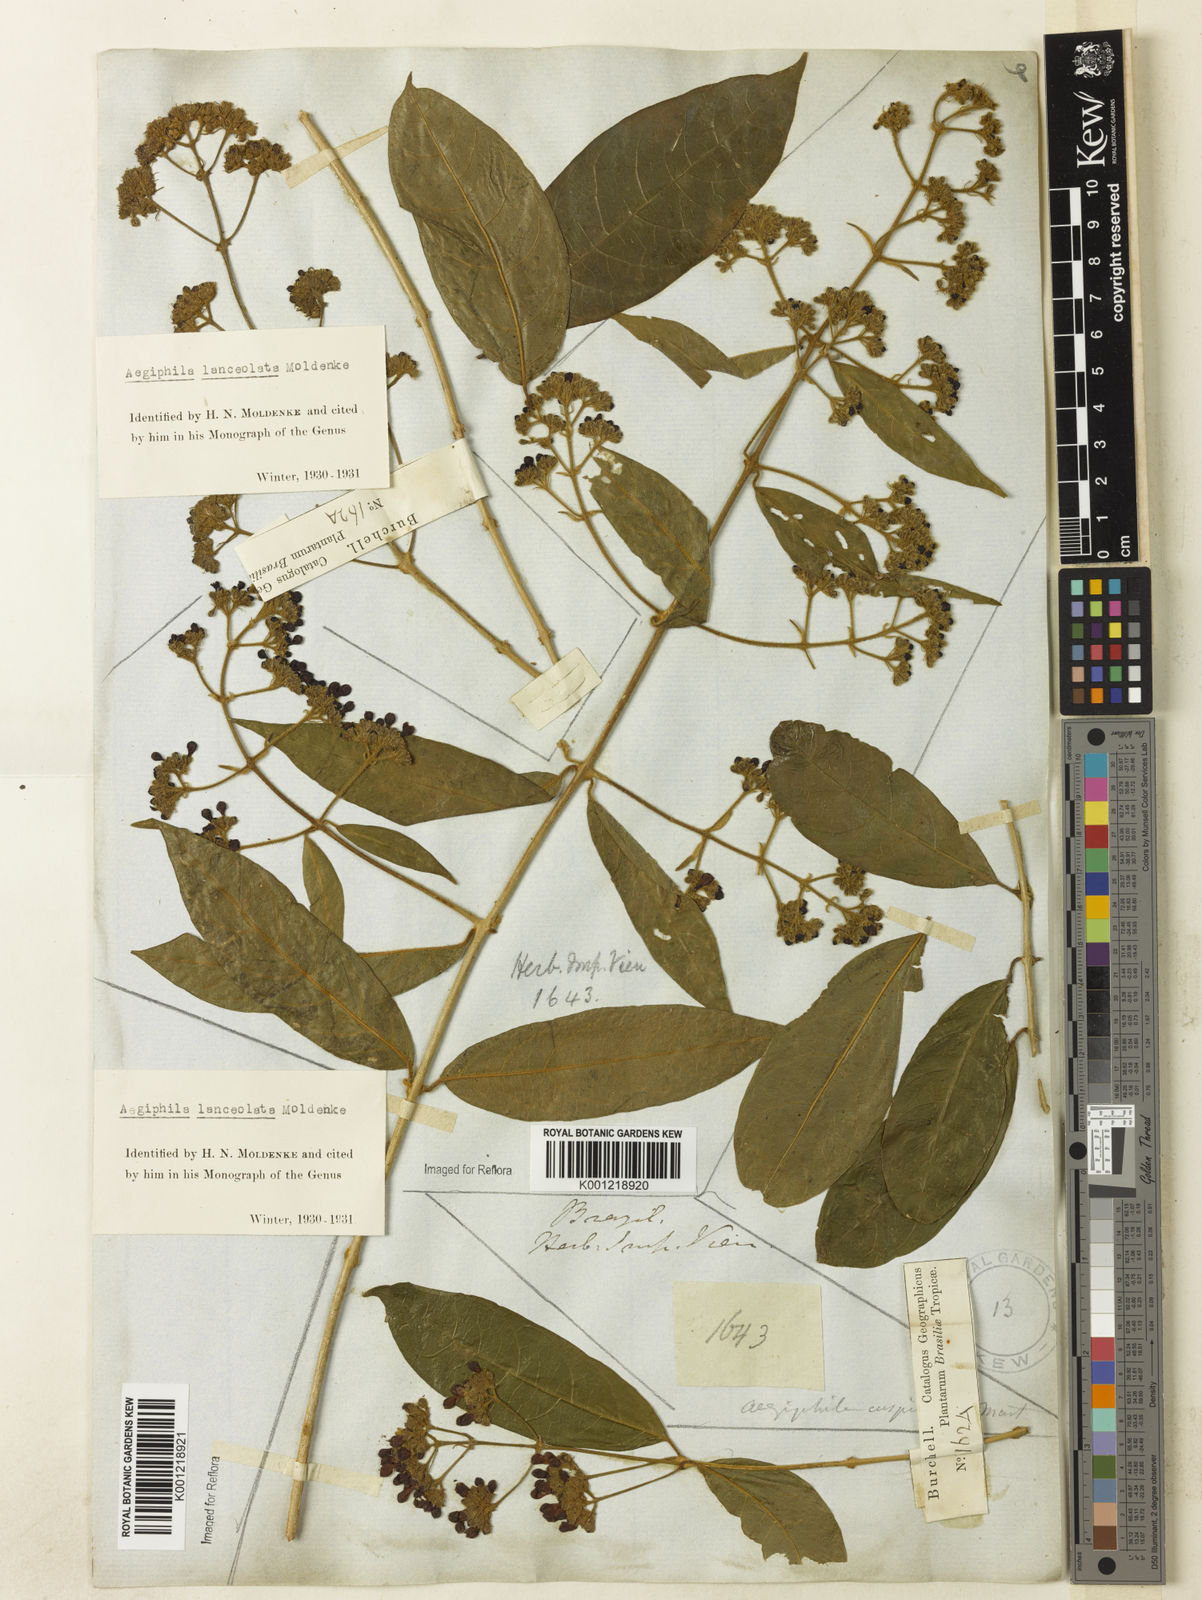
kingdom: Plantae
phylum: Tracheophyta
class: Magnoliopsida
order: Lamiales
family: Lamiaceae
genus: Aegiphila
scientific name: Aegiphila vitelliniflora
